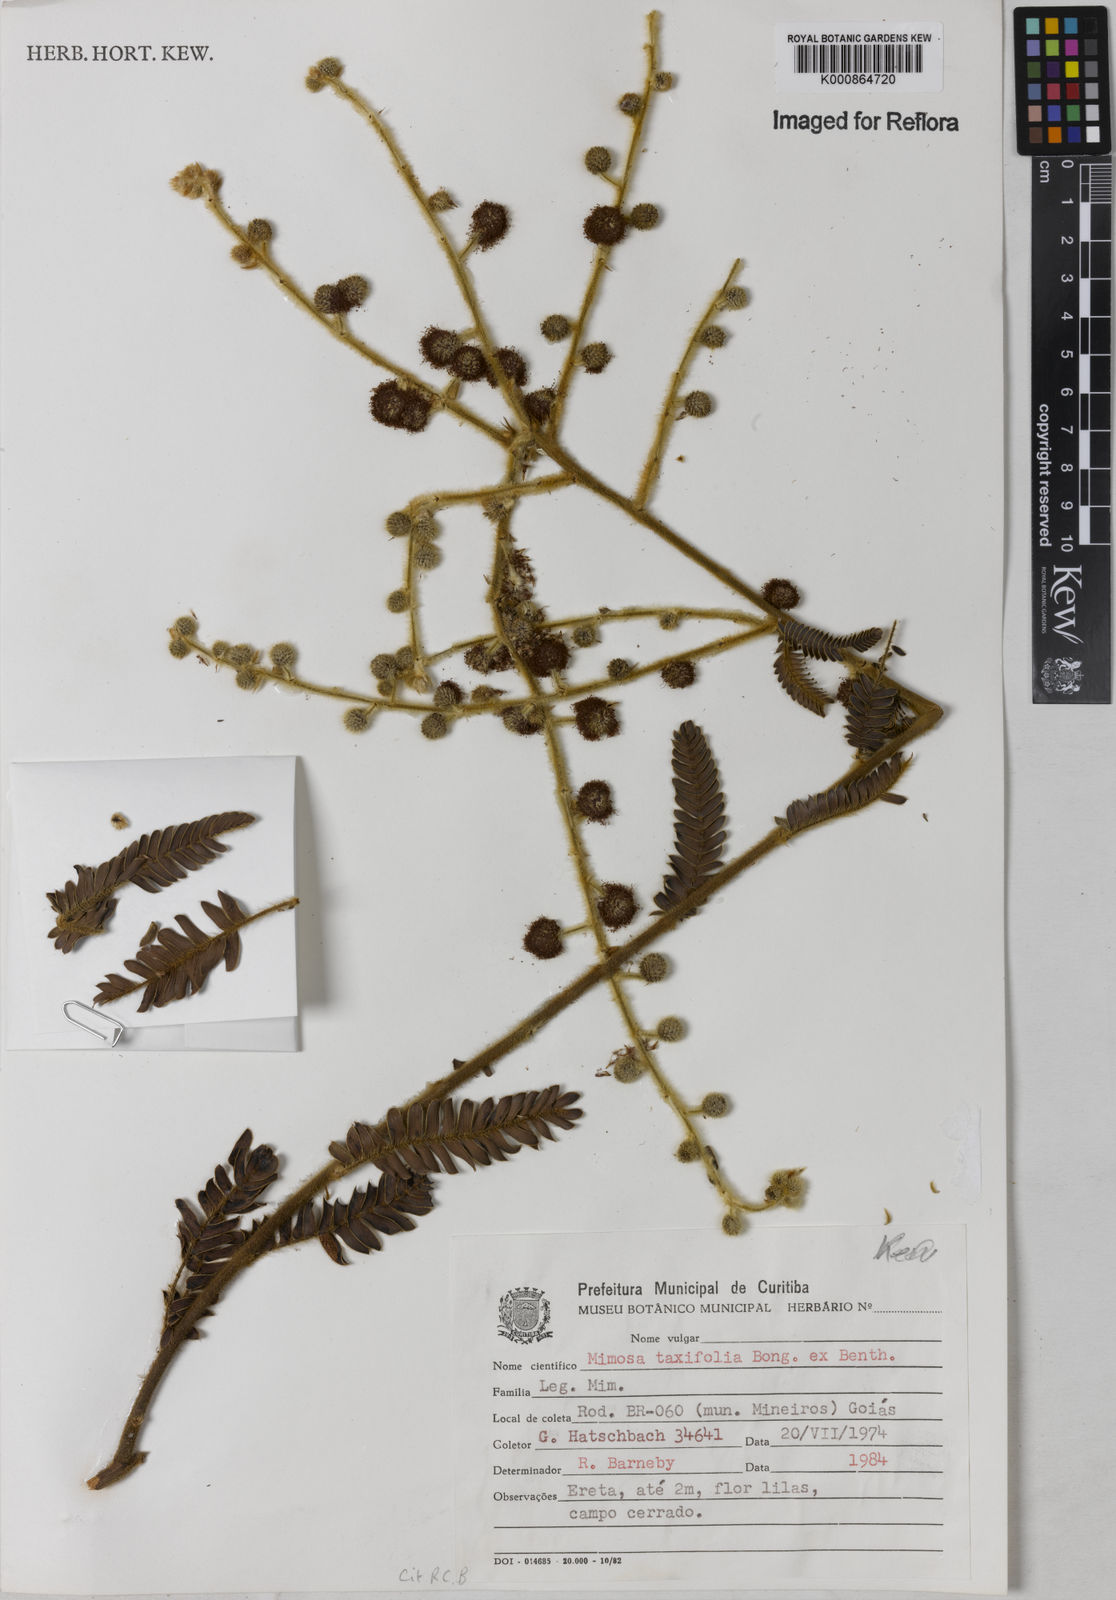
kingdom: Plantae
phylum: Tracheophyta
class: Magnoliopsida
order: Fabales
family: Fabaceae
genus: Mimosa
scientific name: Mimosa polycephala
